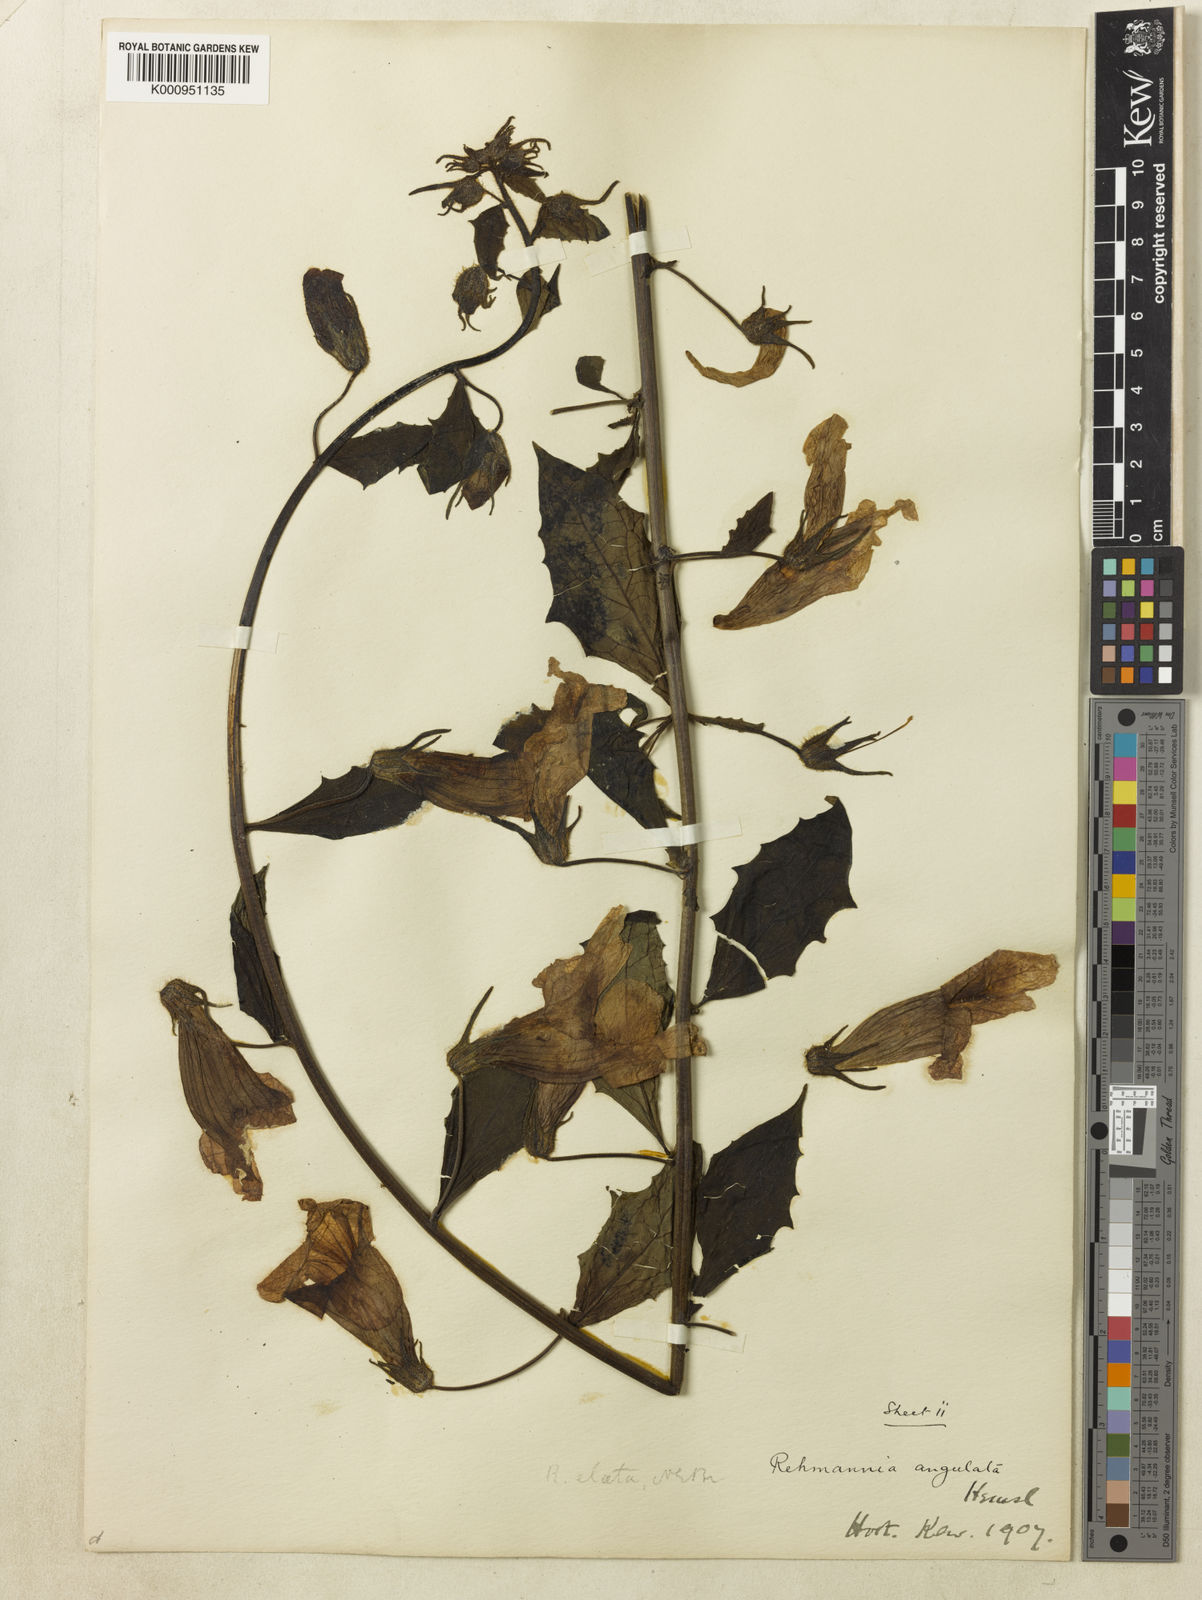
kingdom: Plantae
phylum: Tracheophyta
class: Magnoliopsida
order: Lamiales
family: Rehmanniaceae
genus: Rehmannia
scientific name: Rehmannia
